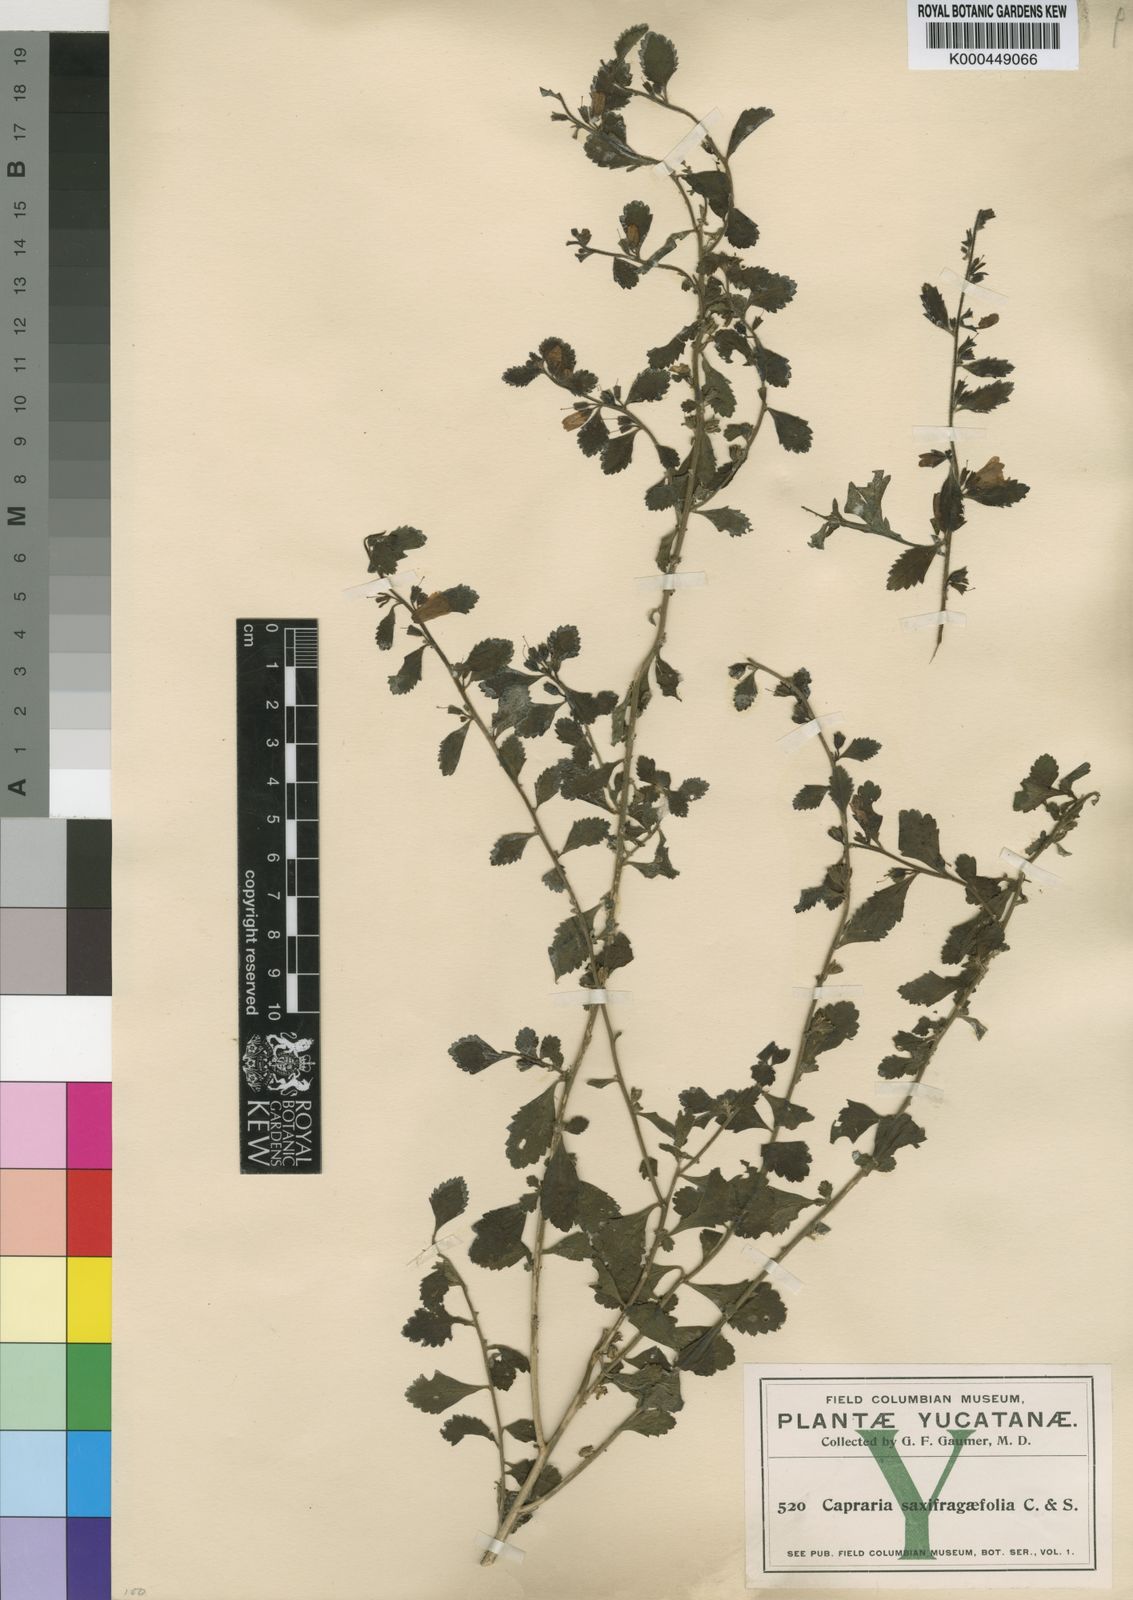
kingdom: Plantae
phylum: Tracheophyta
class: Magnoliopsida
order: Lamiales
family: Scrophulariaceae
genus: Capraria
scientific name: Capraria frutescens
